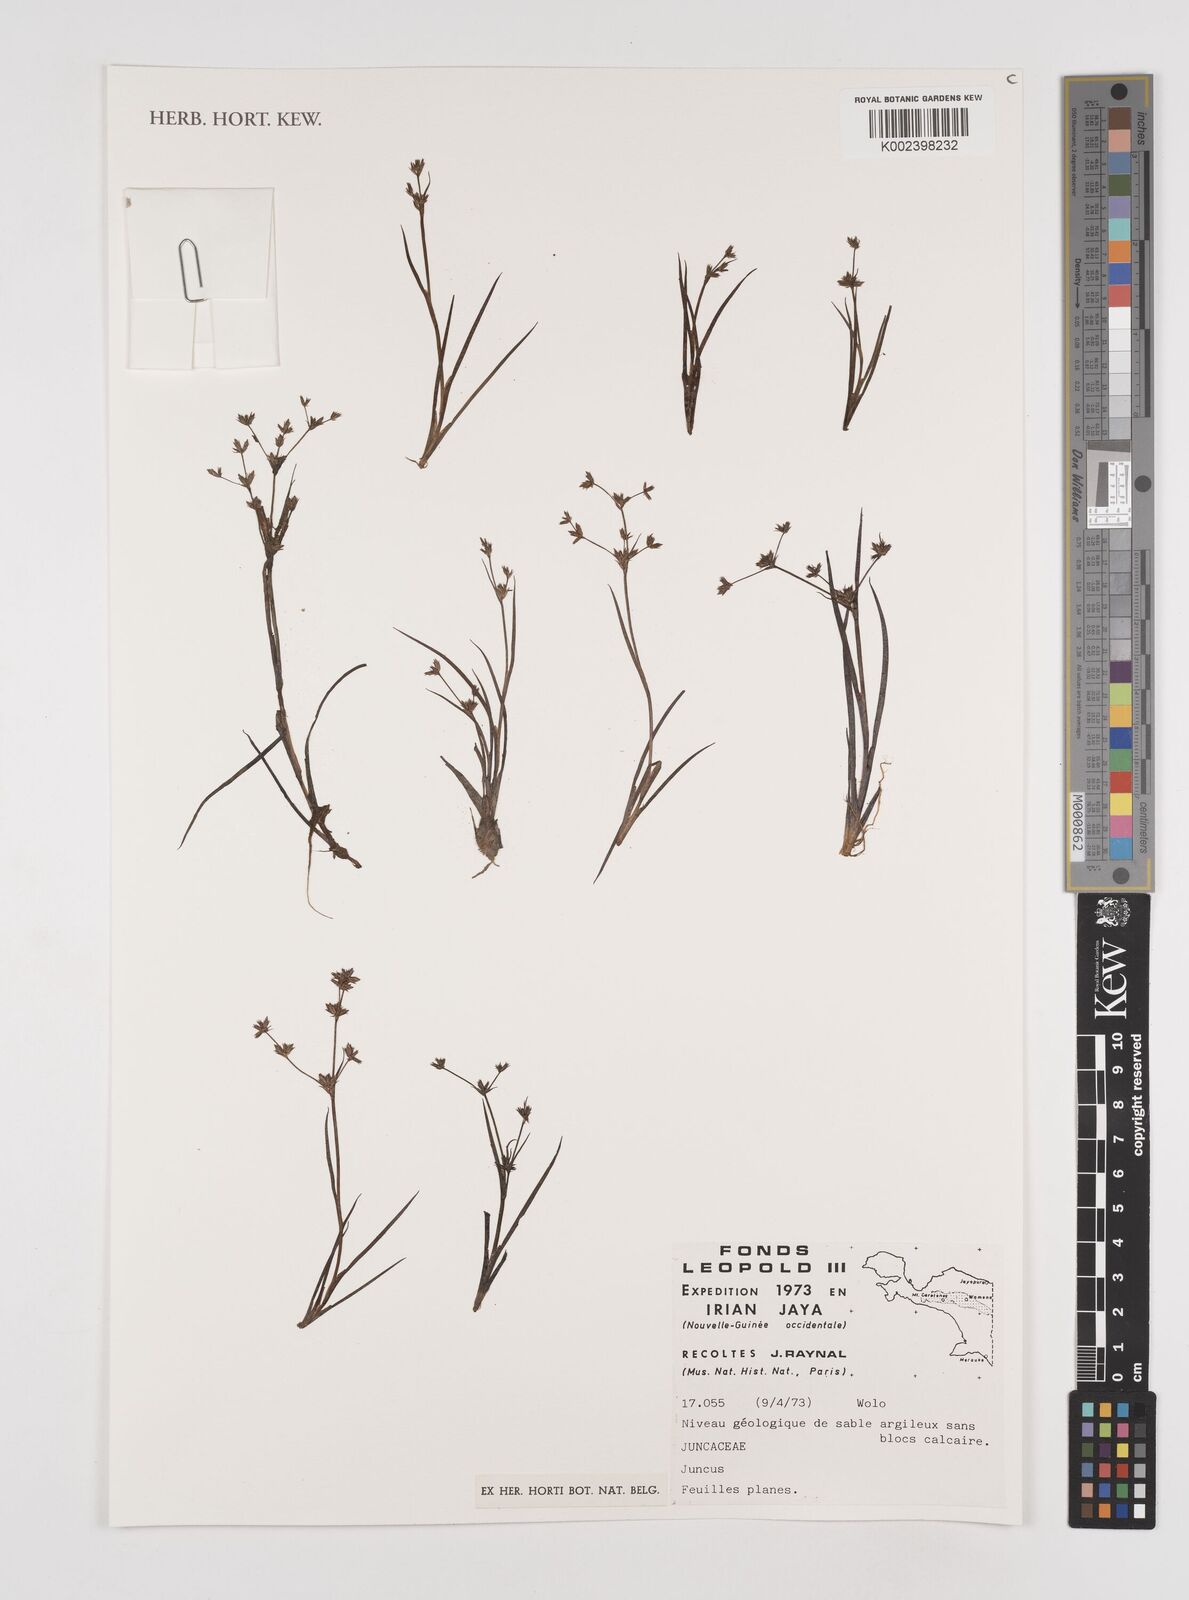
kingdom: Plantae
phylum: Tracheophyta
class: Liliopsida
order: Poales
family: Juncaceae
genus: Juncus
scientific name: Juncus
